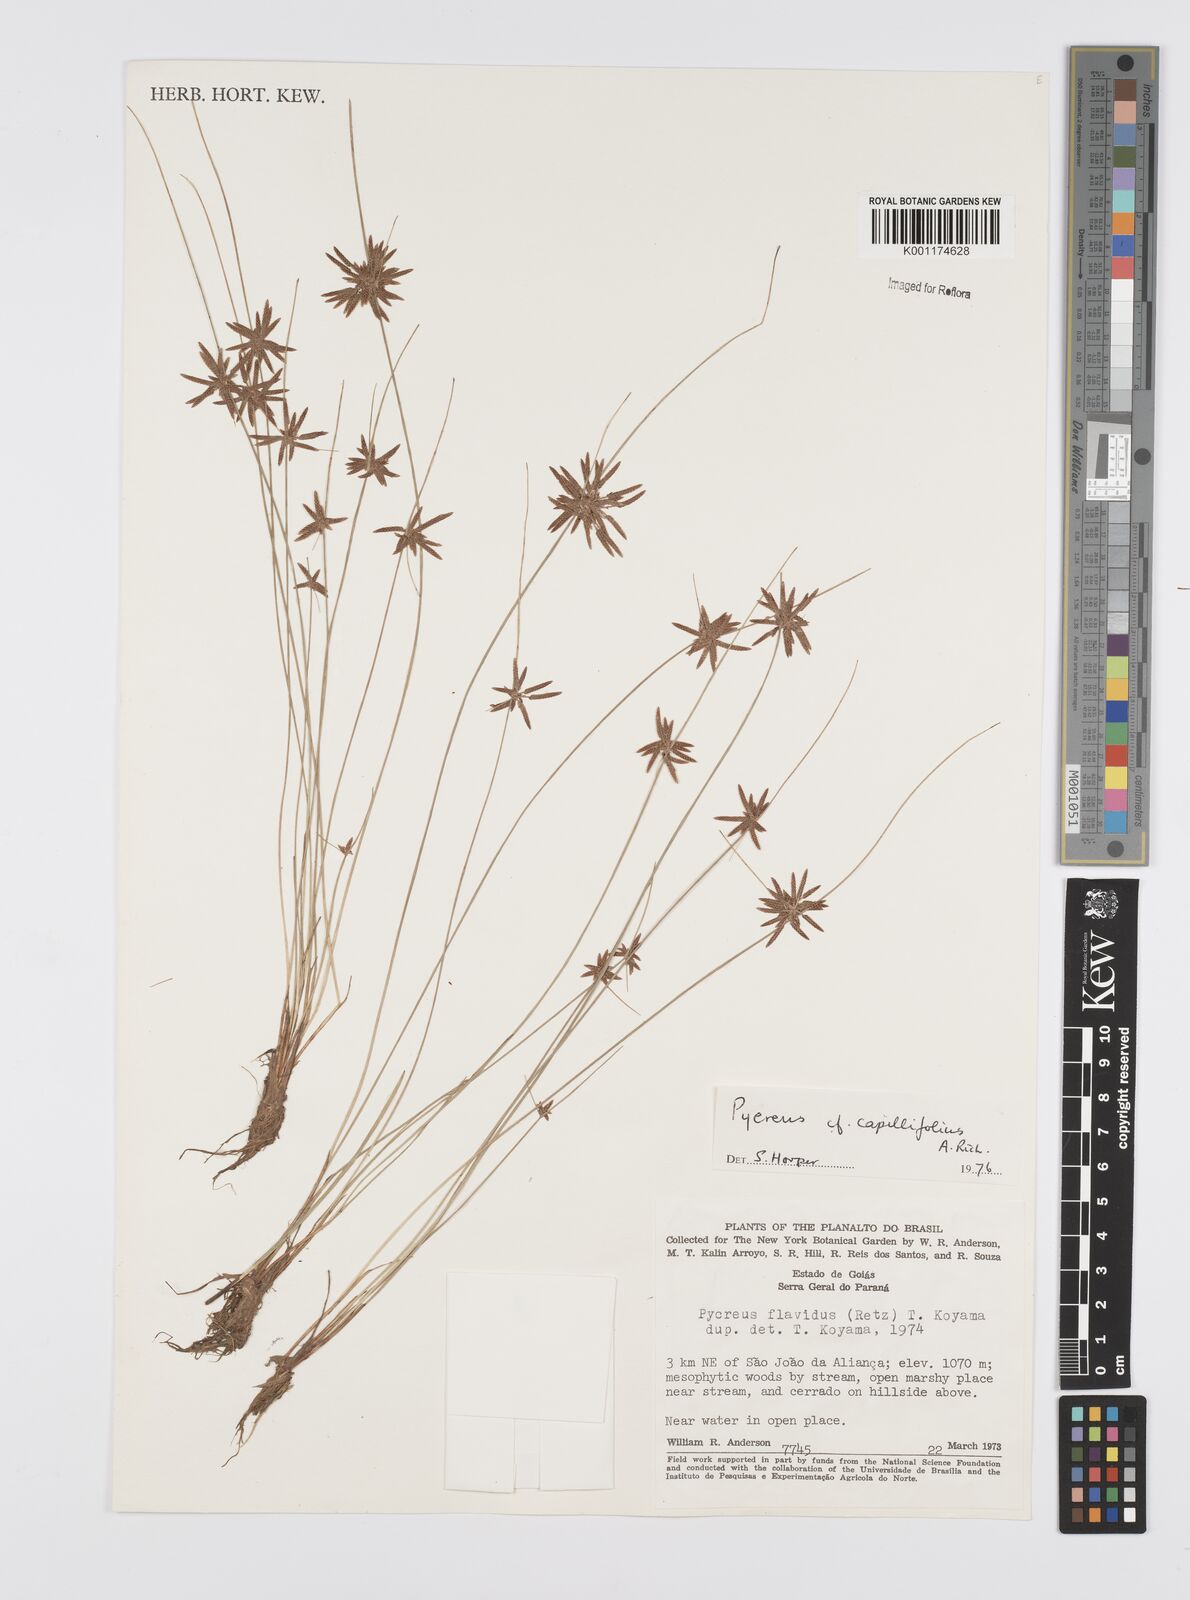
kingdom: Plantae
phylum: Tracheophyta
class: Liliopsida
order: Poales
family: Cyperaceae
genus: Cyperus
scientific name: Cyperus capillifolius
